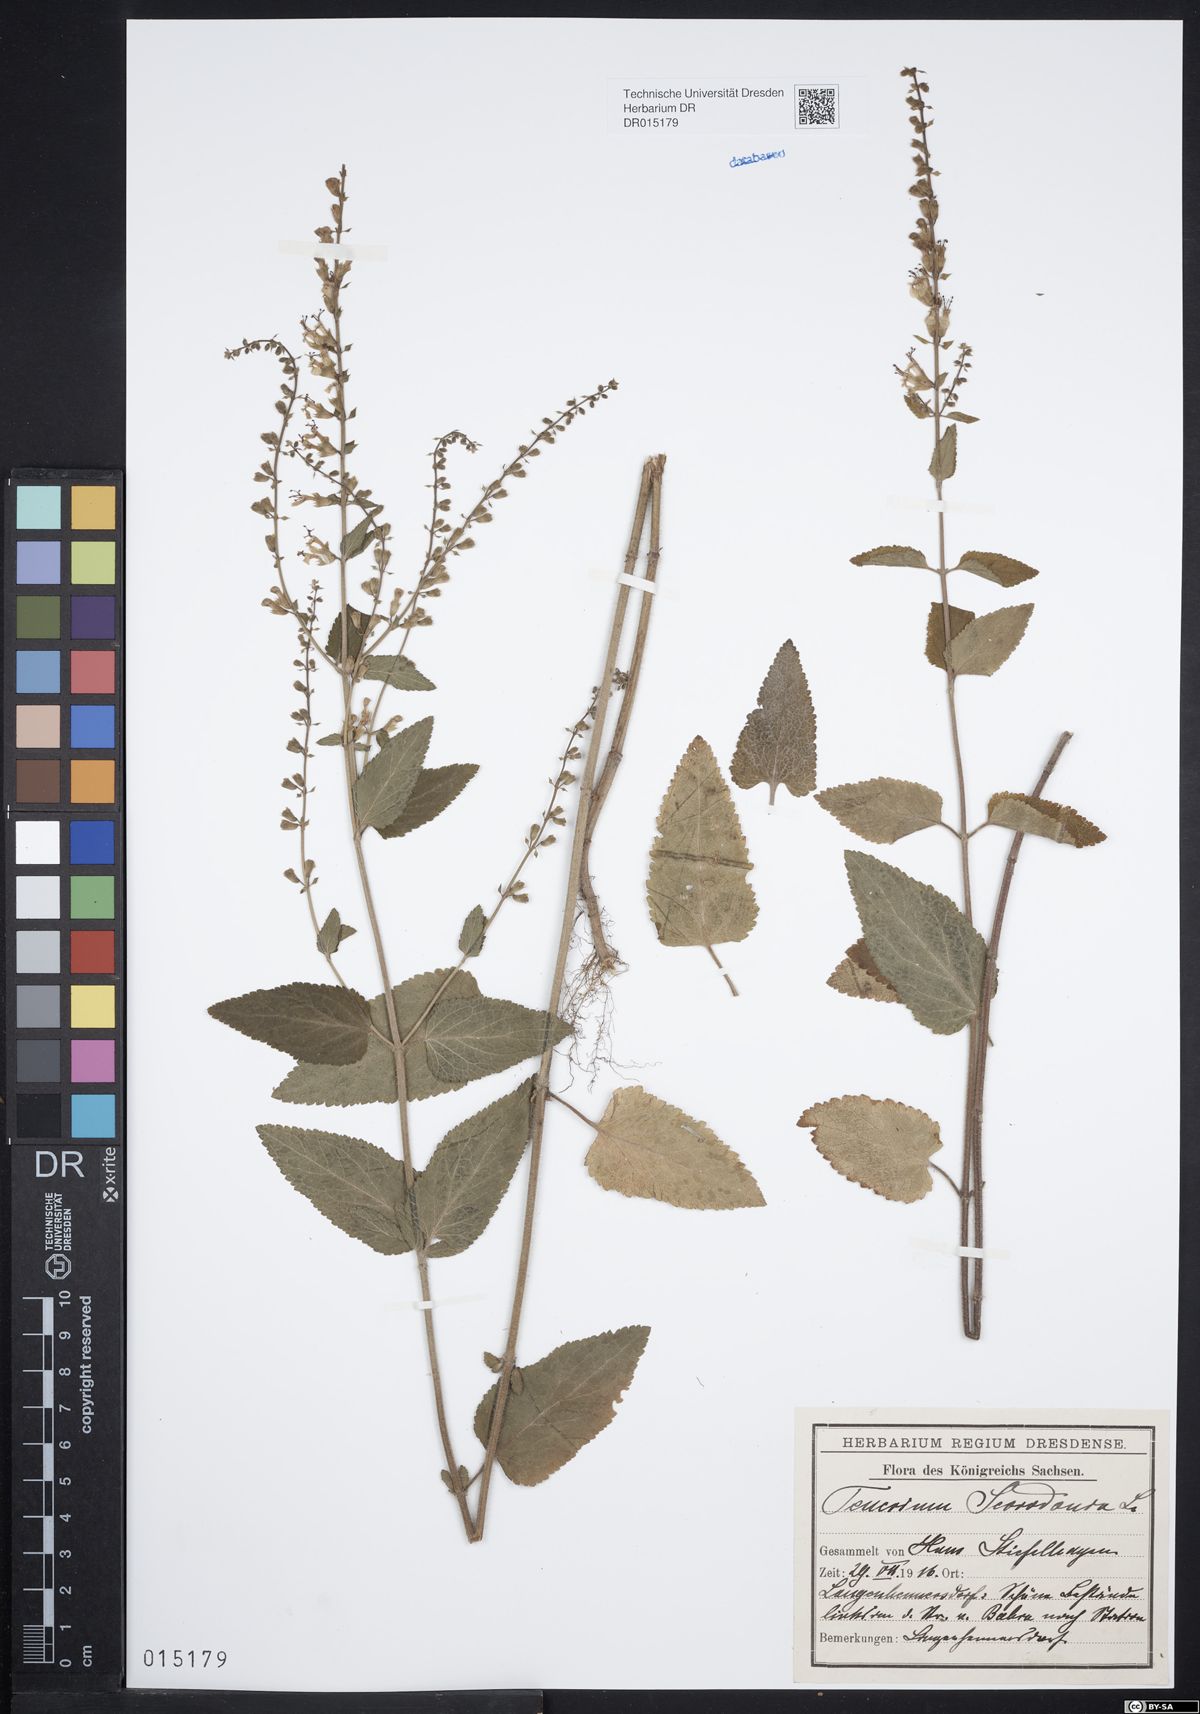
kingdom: Plantae
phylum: Tracheophyta
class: Magnoliopsida
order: Lamiales
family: Lamiaceae
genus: Teucrium
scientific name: Teucrium scorodonia
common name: Woodland germander
